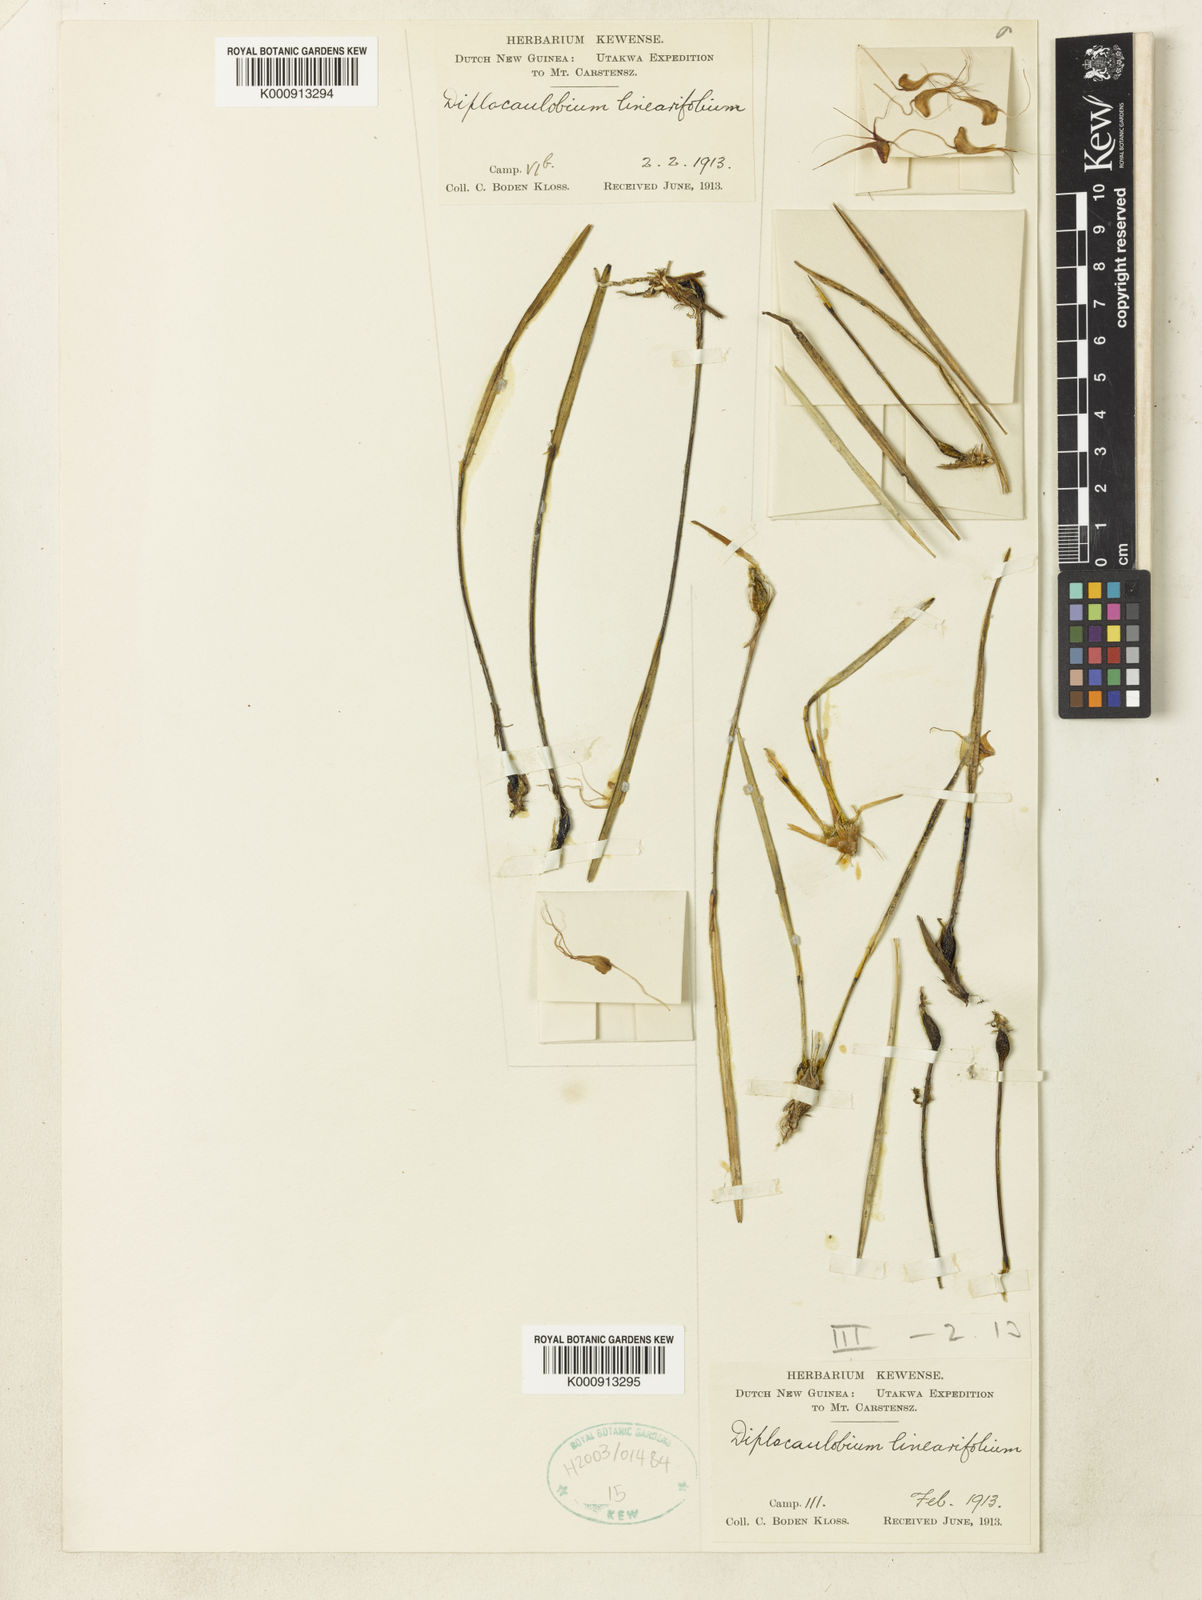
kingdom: Plantae
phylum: Tracheophyta
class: Liliopsida
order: Asparagales
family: Orchidaceae
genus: Dendrobium
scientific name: Dendrobium scotiiforme
